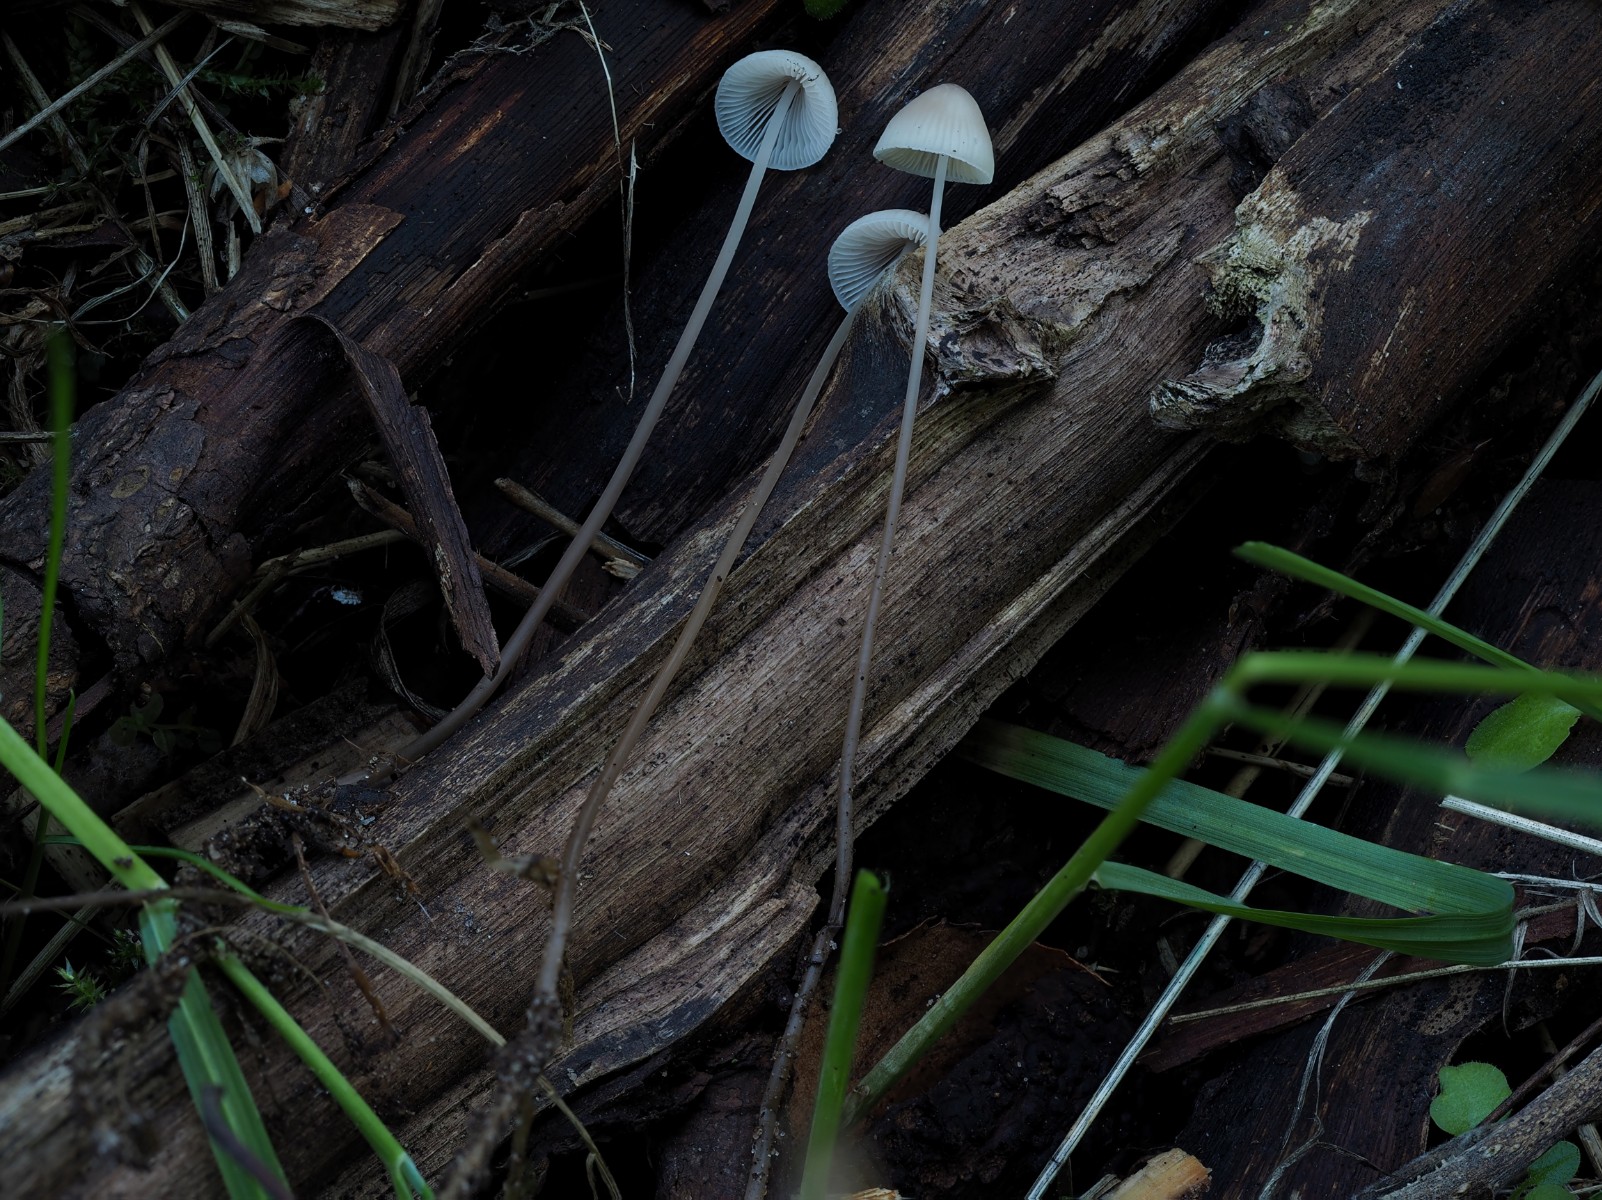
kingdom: Fungi
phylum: Basidiomycota
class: Agaricomycetes
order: Agaricales
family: Mycenaceae
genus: Mycena
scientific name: Mycena filopes
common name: jod-huesvamp
